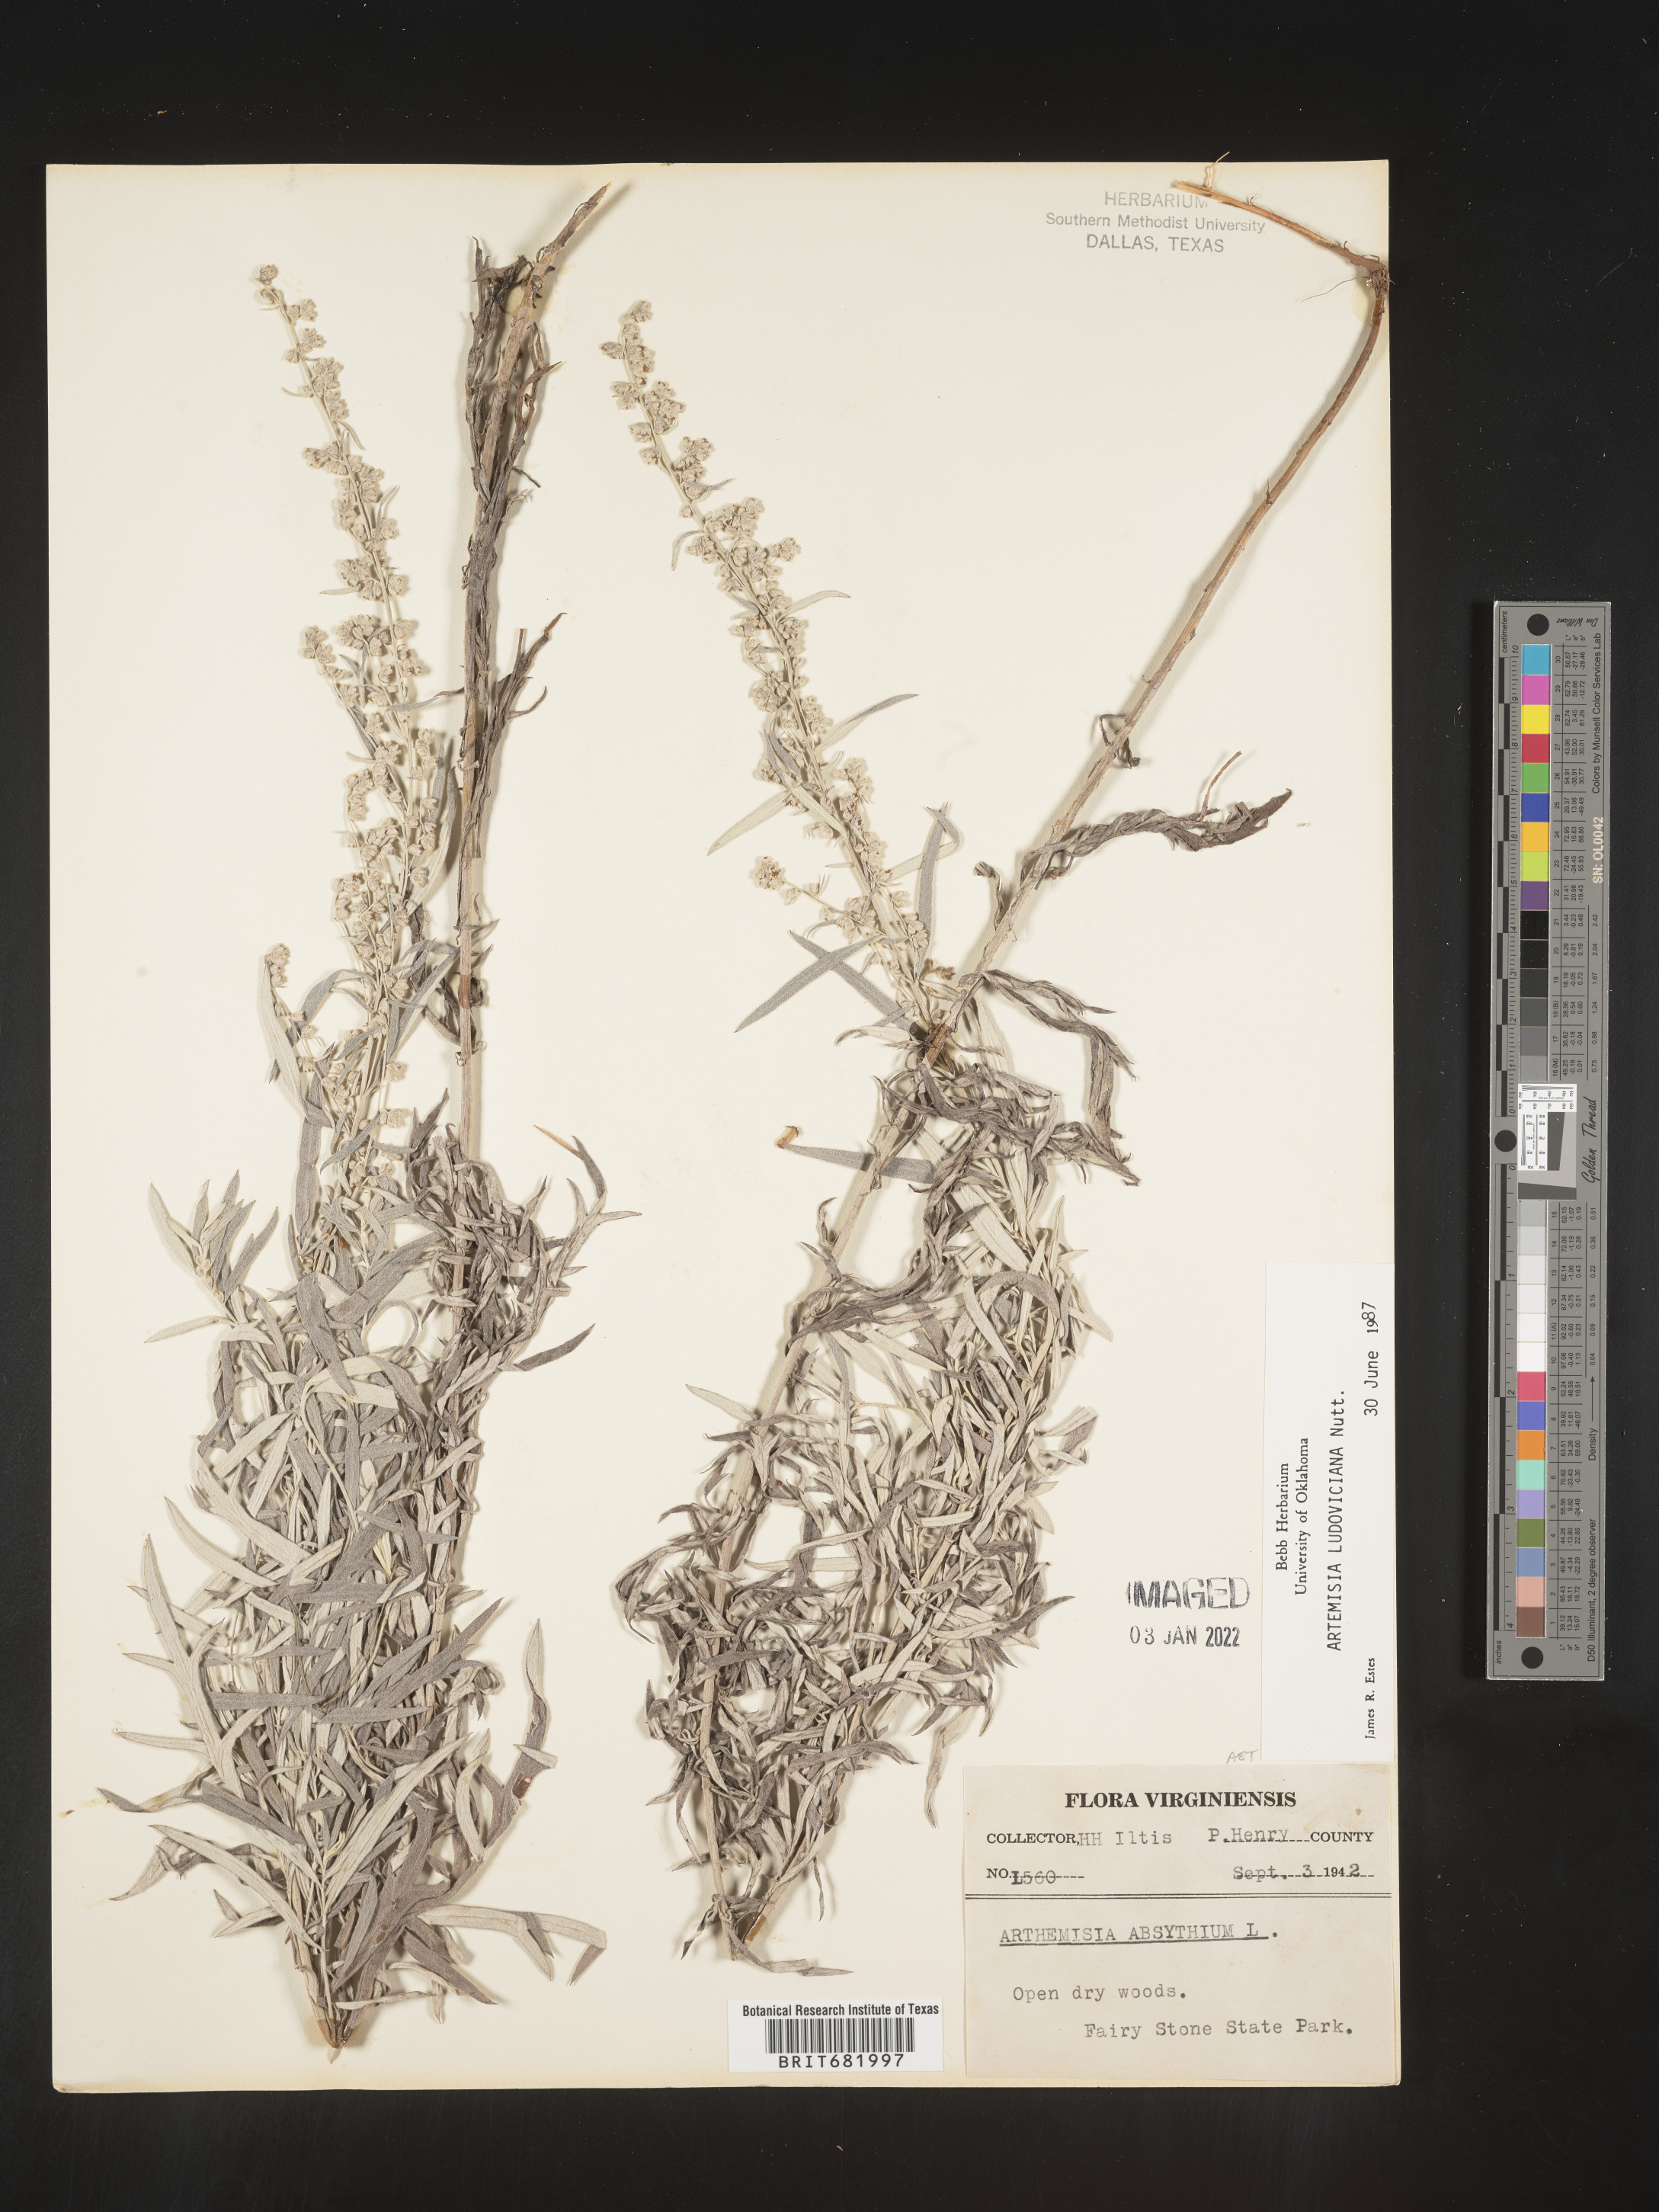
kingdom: Plantae
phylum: Tracheophyta
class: Magnoliopsida
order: Asterales
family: Asteraceae
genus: Artemisia
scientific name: Artemisia ludoviciana
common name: Western mugwort
